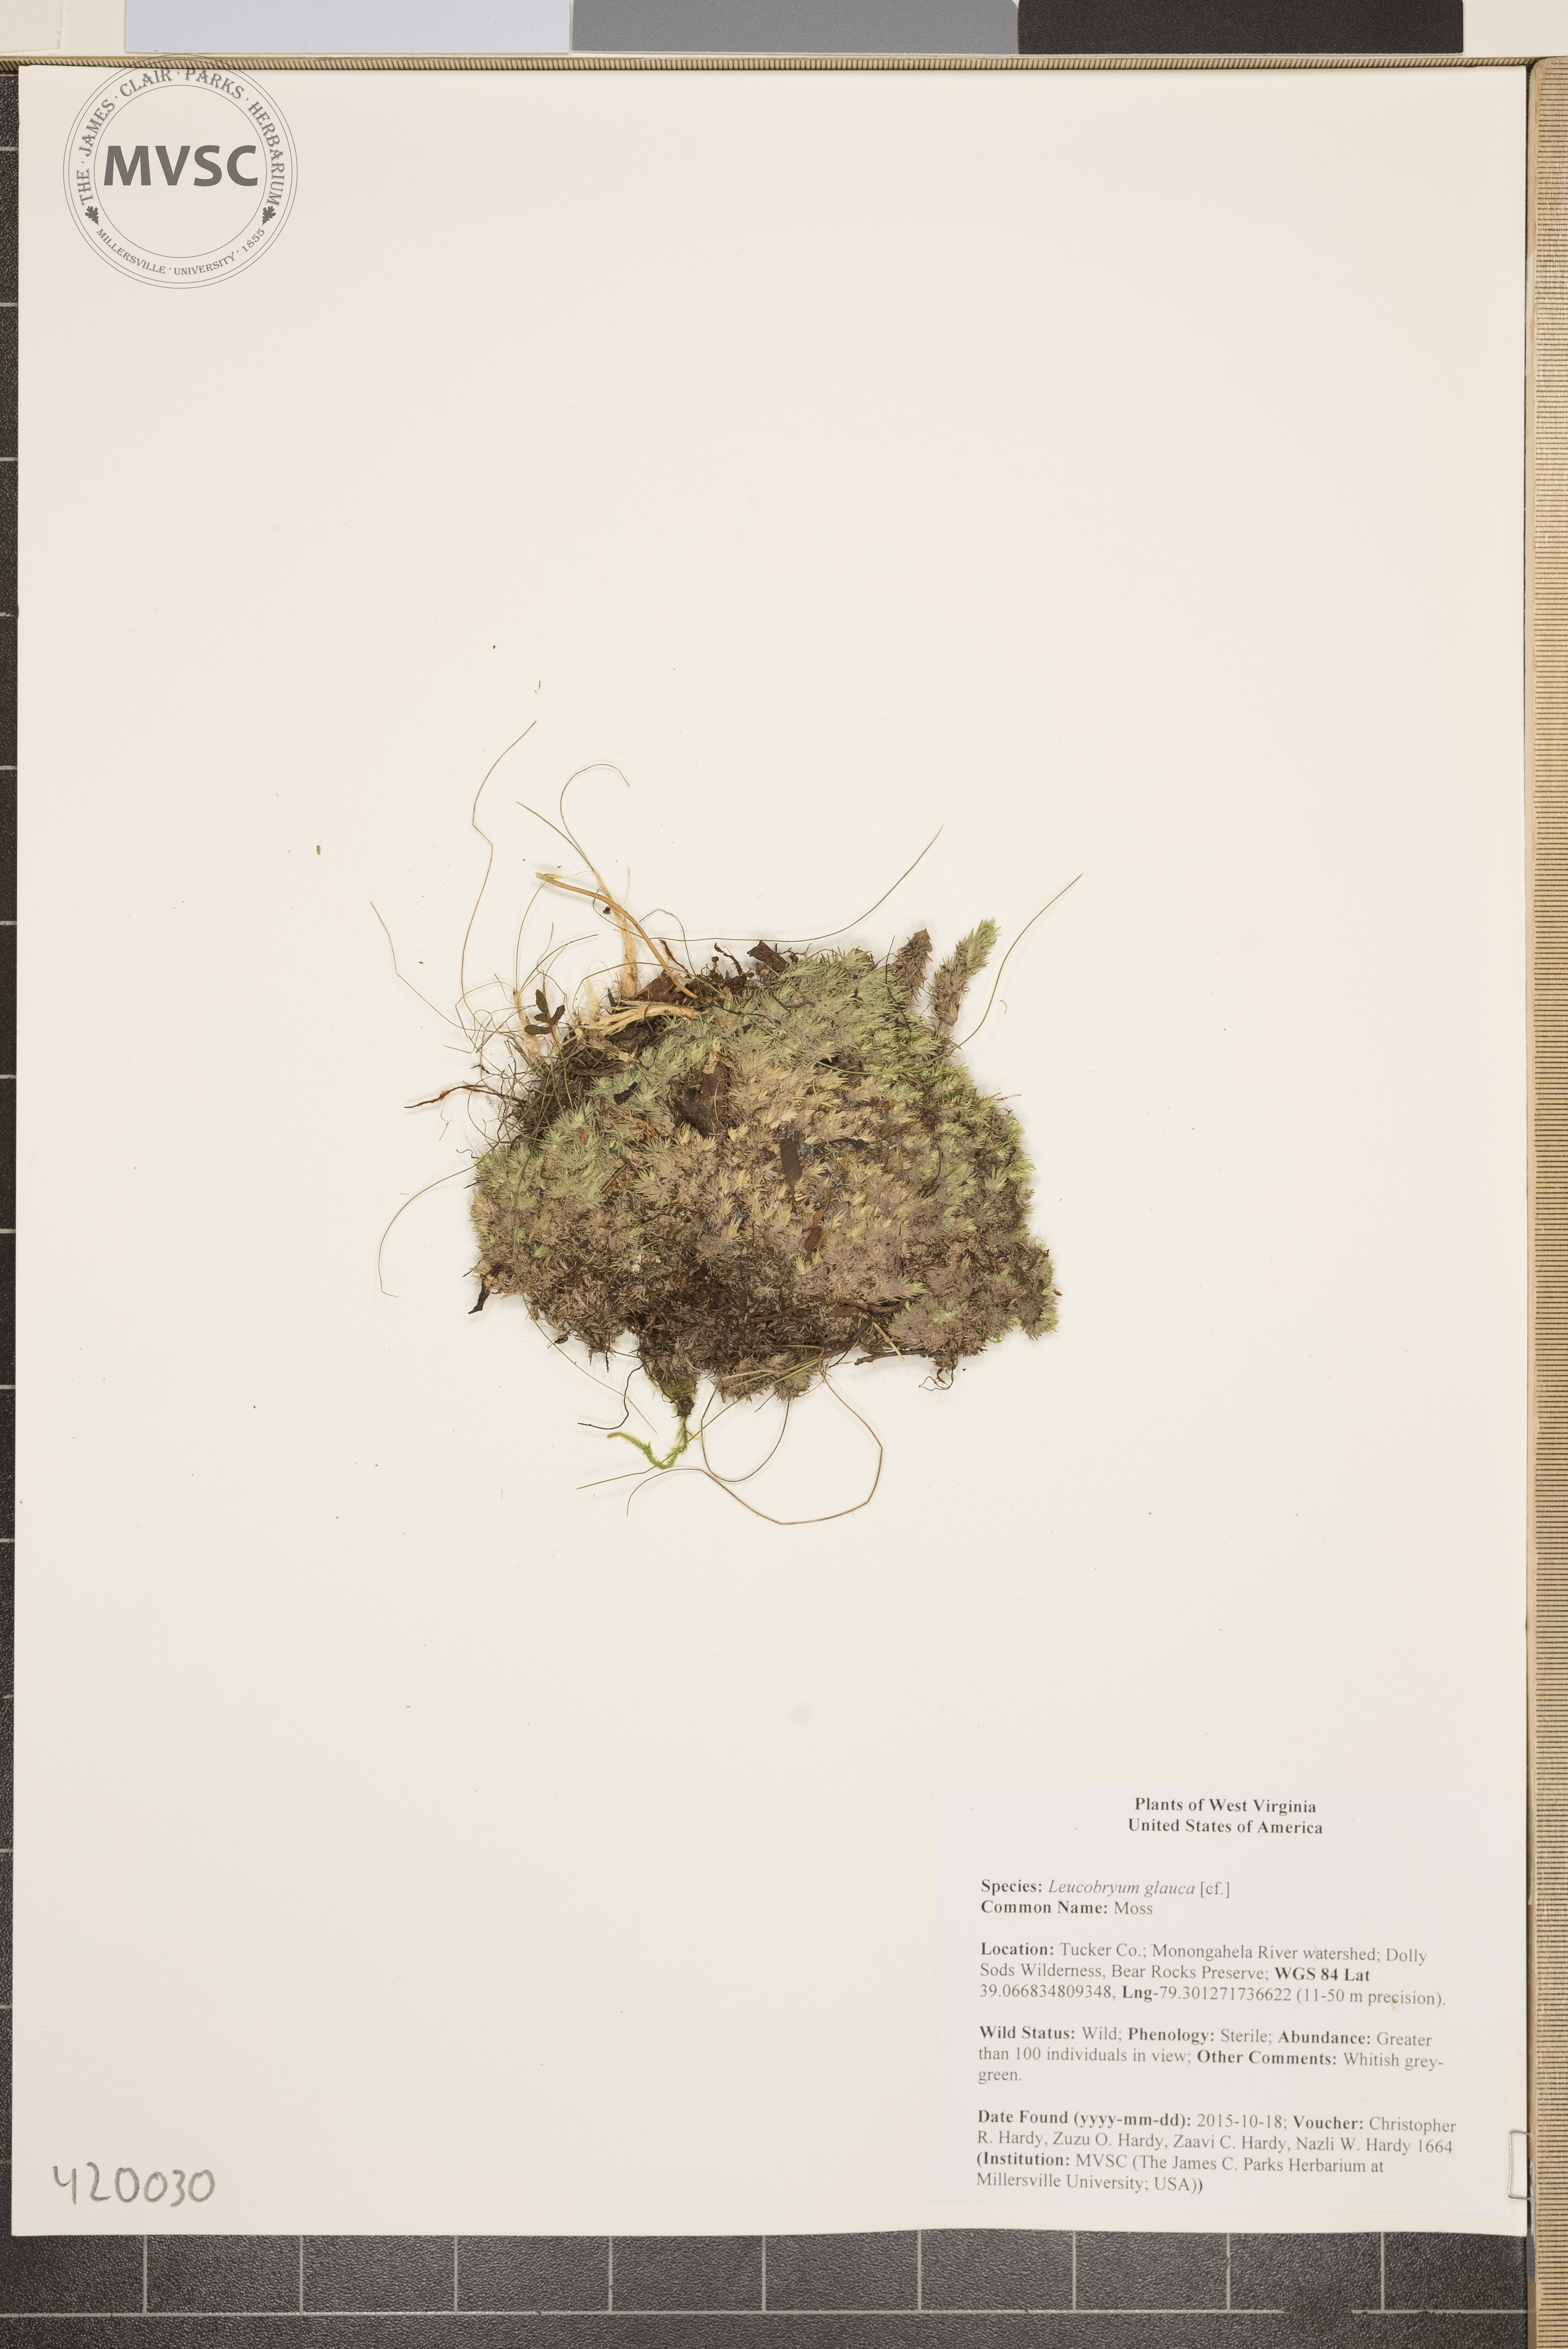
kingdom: Plantae
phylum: Bryophyta
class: Bryopsida
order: Dicranales
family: Leucobryaceae
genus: Leucobryum
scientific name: Leucobryum glaucum
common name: Moss
